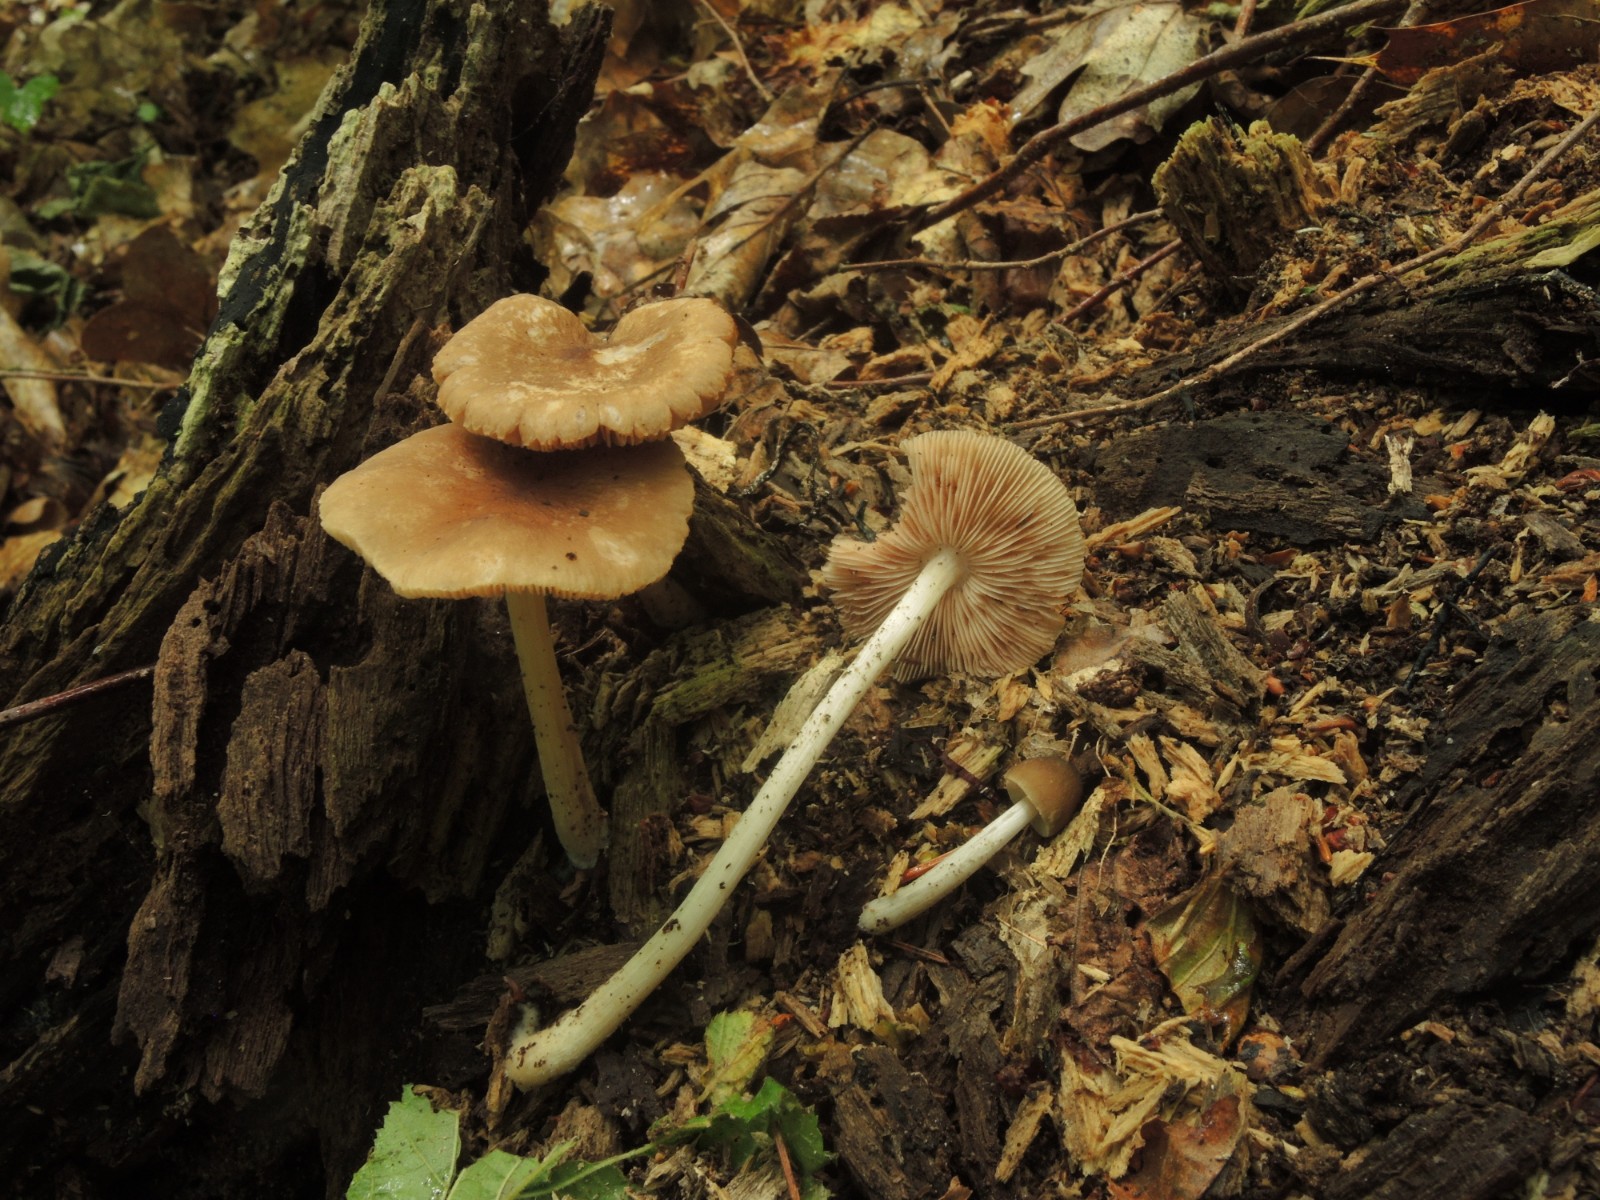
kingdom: Fungi
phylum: Basidiomycota
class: Agaricomycetes
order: Agaricales
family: Pluteaceae
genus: Pluteus
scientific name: Pluteus phlebophorus
